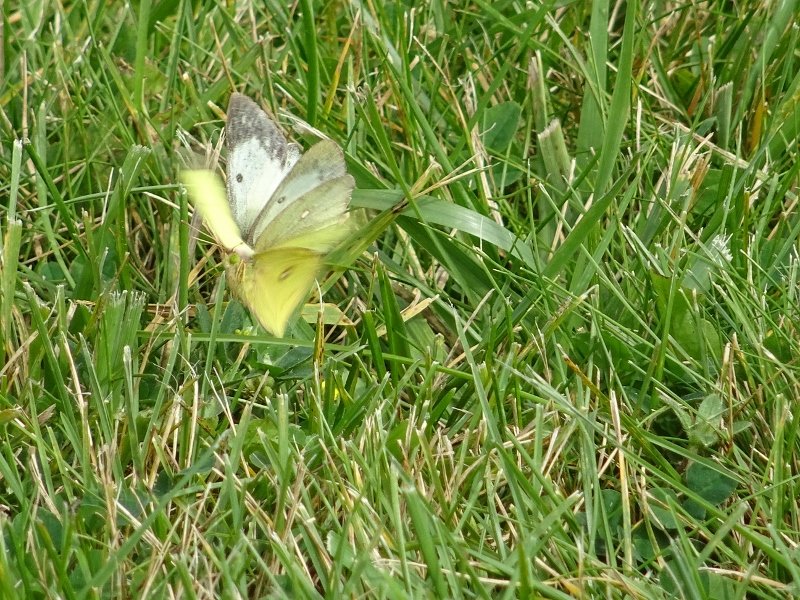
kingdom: Animalia
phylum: Arthropoda
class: Insecta
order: Lepidoptera
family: Pieridae
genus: Colias
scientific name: Colias philodice
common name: Clouded Sulphur
